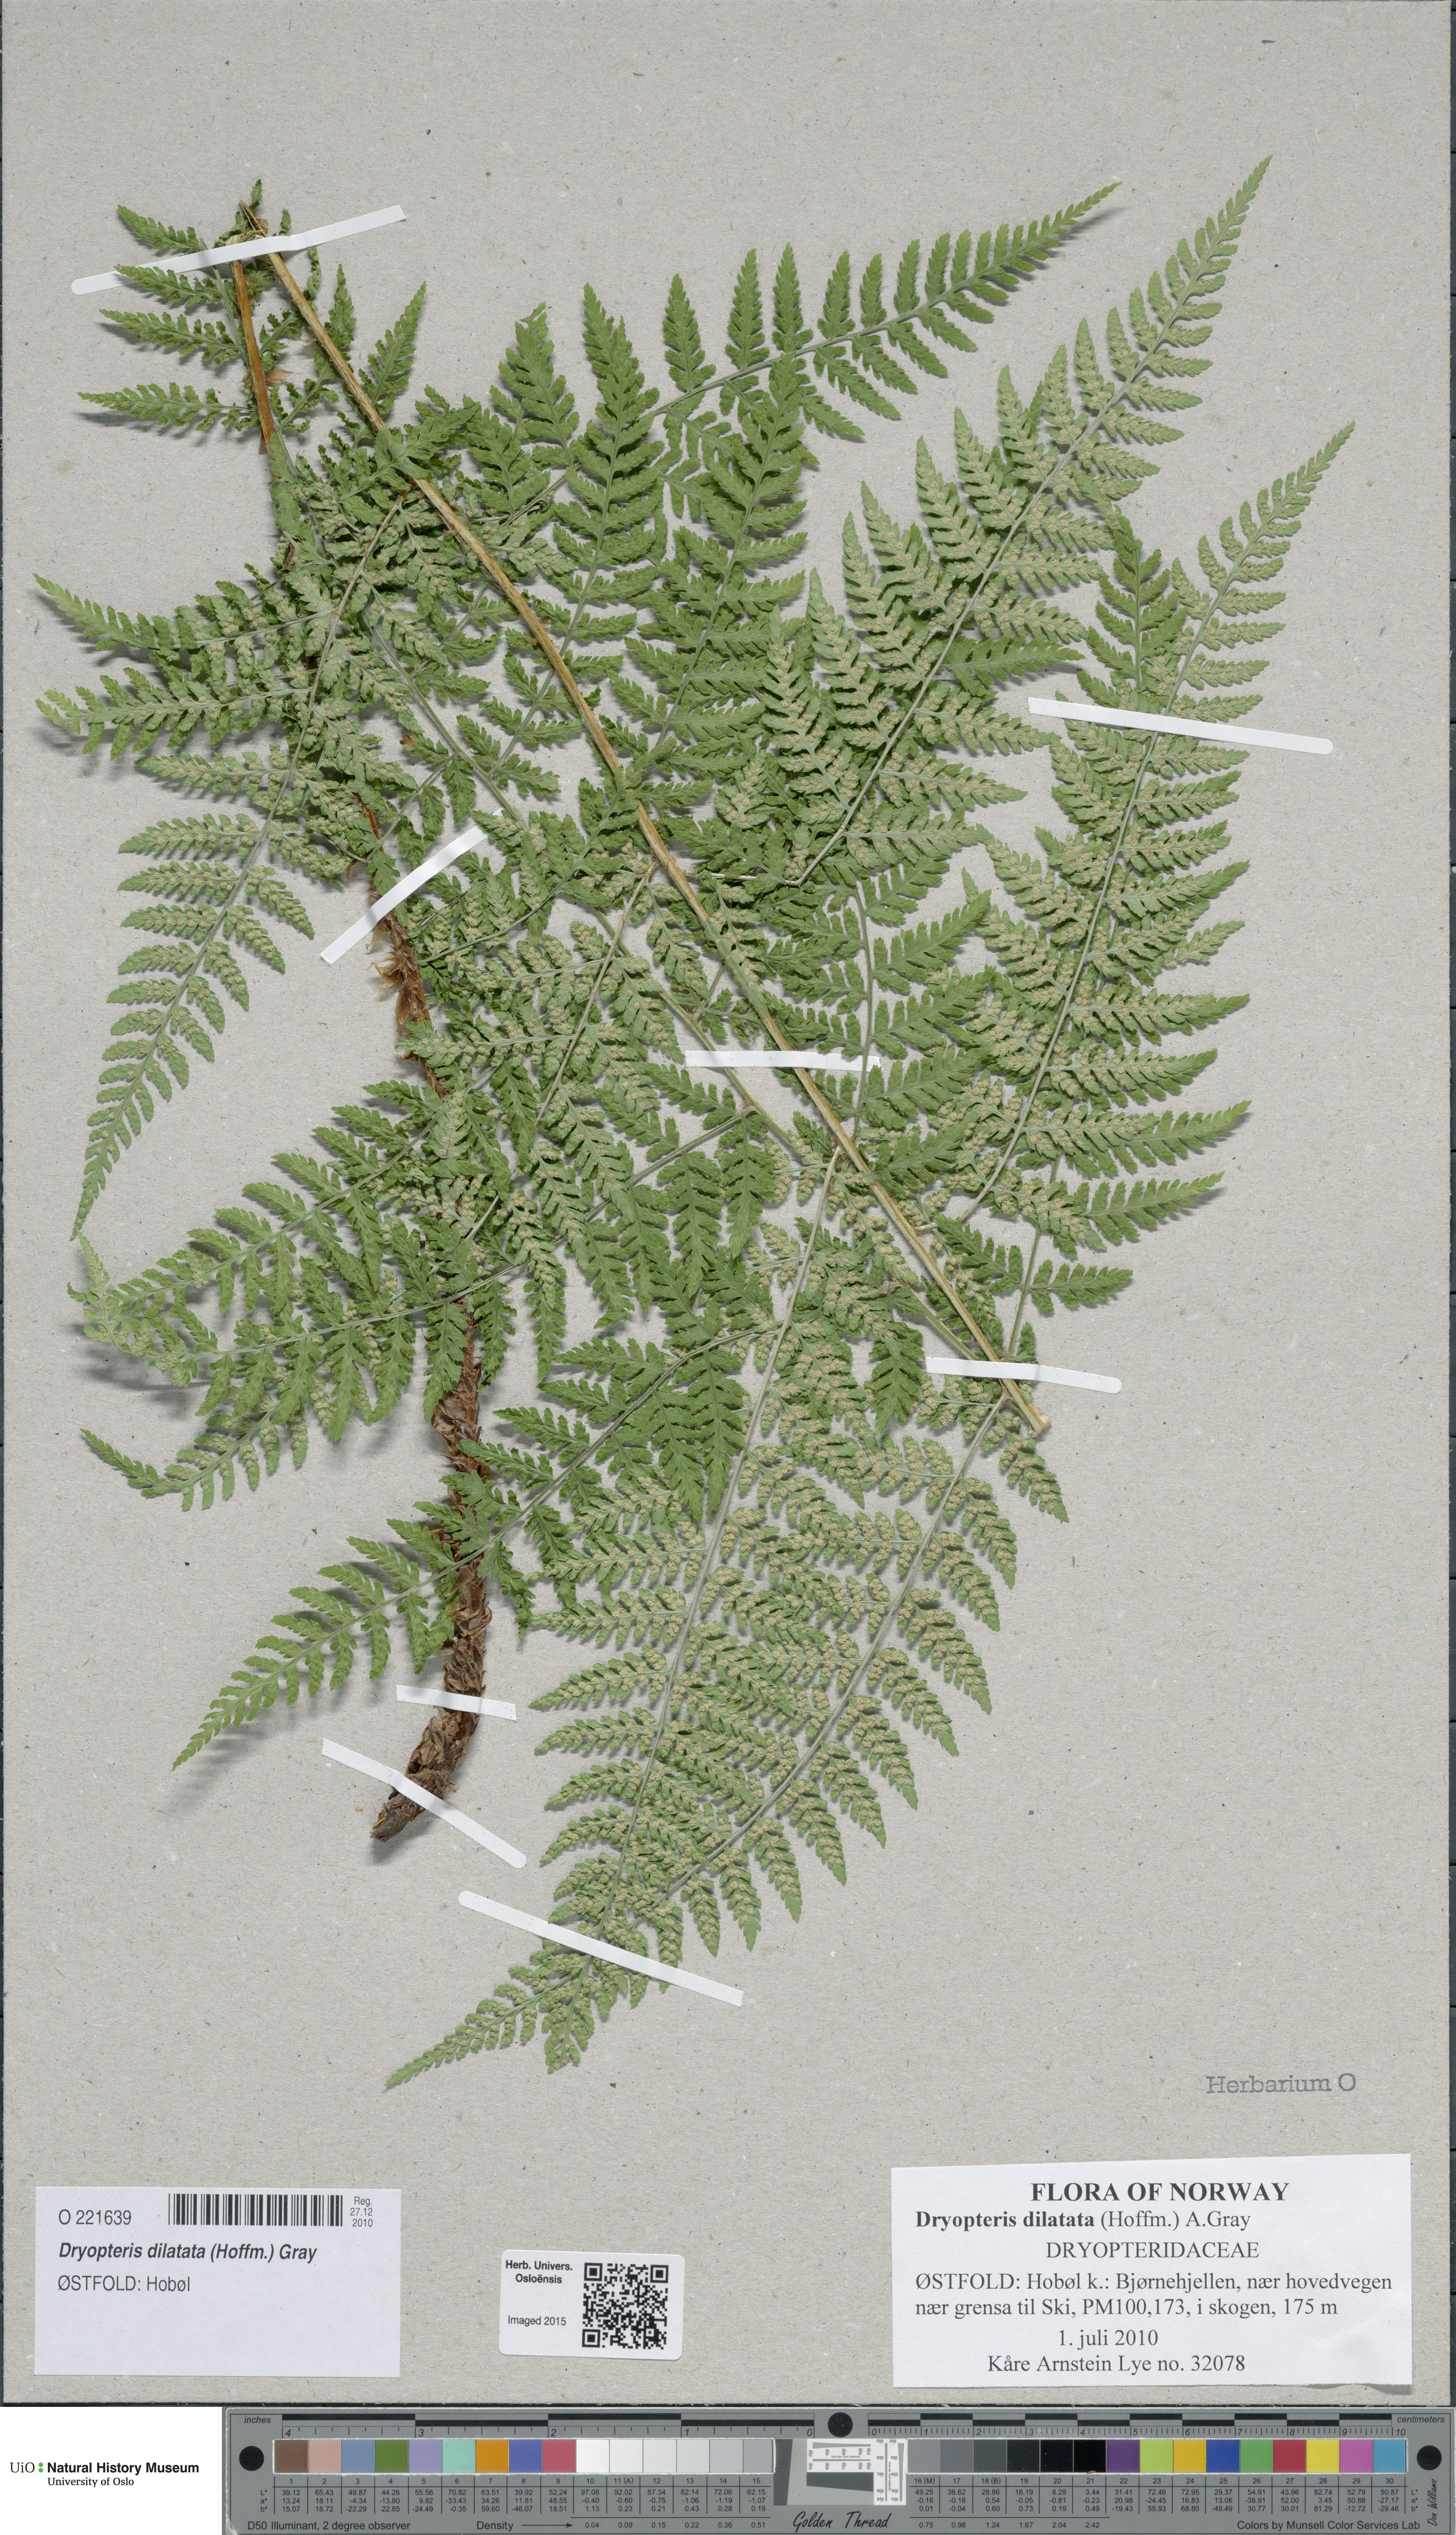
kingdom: Plantae
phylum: Tracheophyta
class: Polypodiopsida
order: Polypodiales
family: Dryopteridaceae
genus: Dryopteris
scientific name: Dryopteris dilatata
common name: Broad buckler-fern
